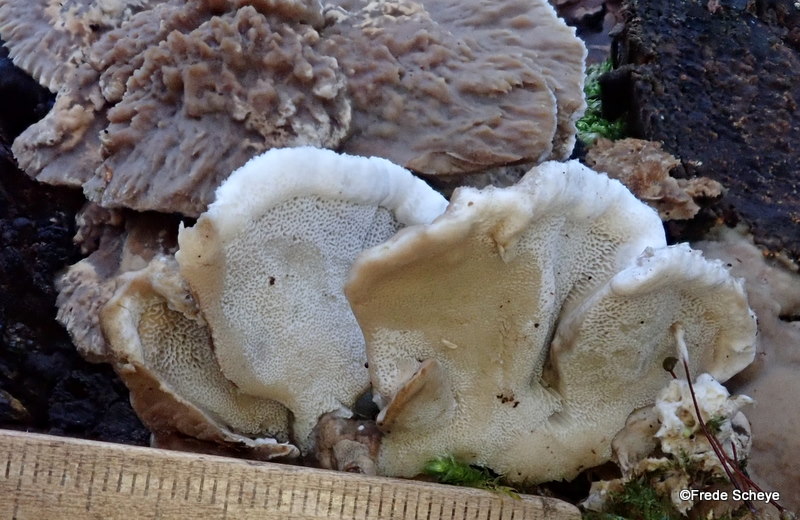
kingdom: Fungi
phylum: Basidiomycota
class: Agaricomycetes
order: Polyporales
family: Phanerochaetaceae
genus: Bjerkandera
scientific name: Bjerkandera fumosa
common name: grågul sodporesvamp
